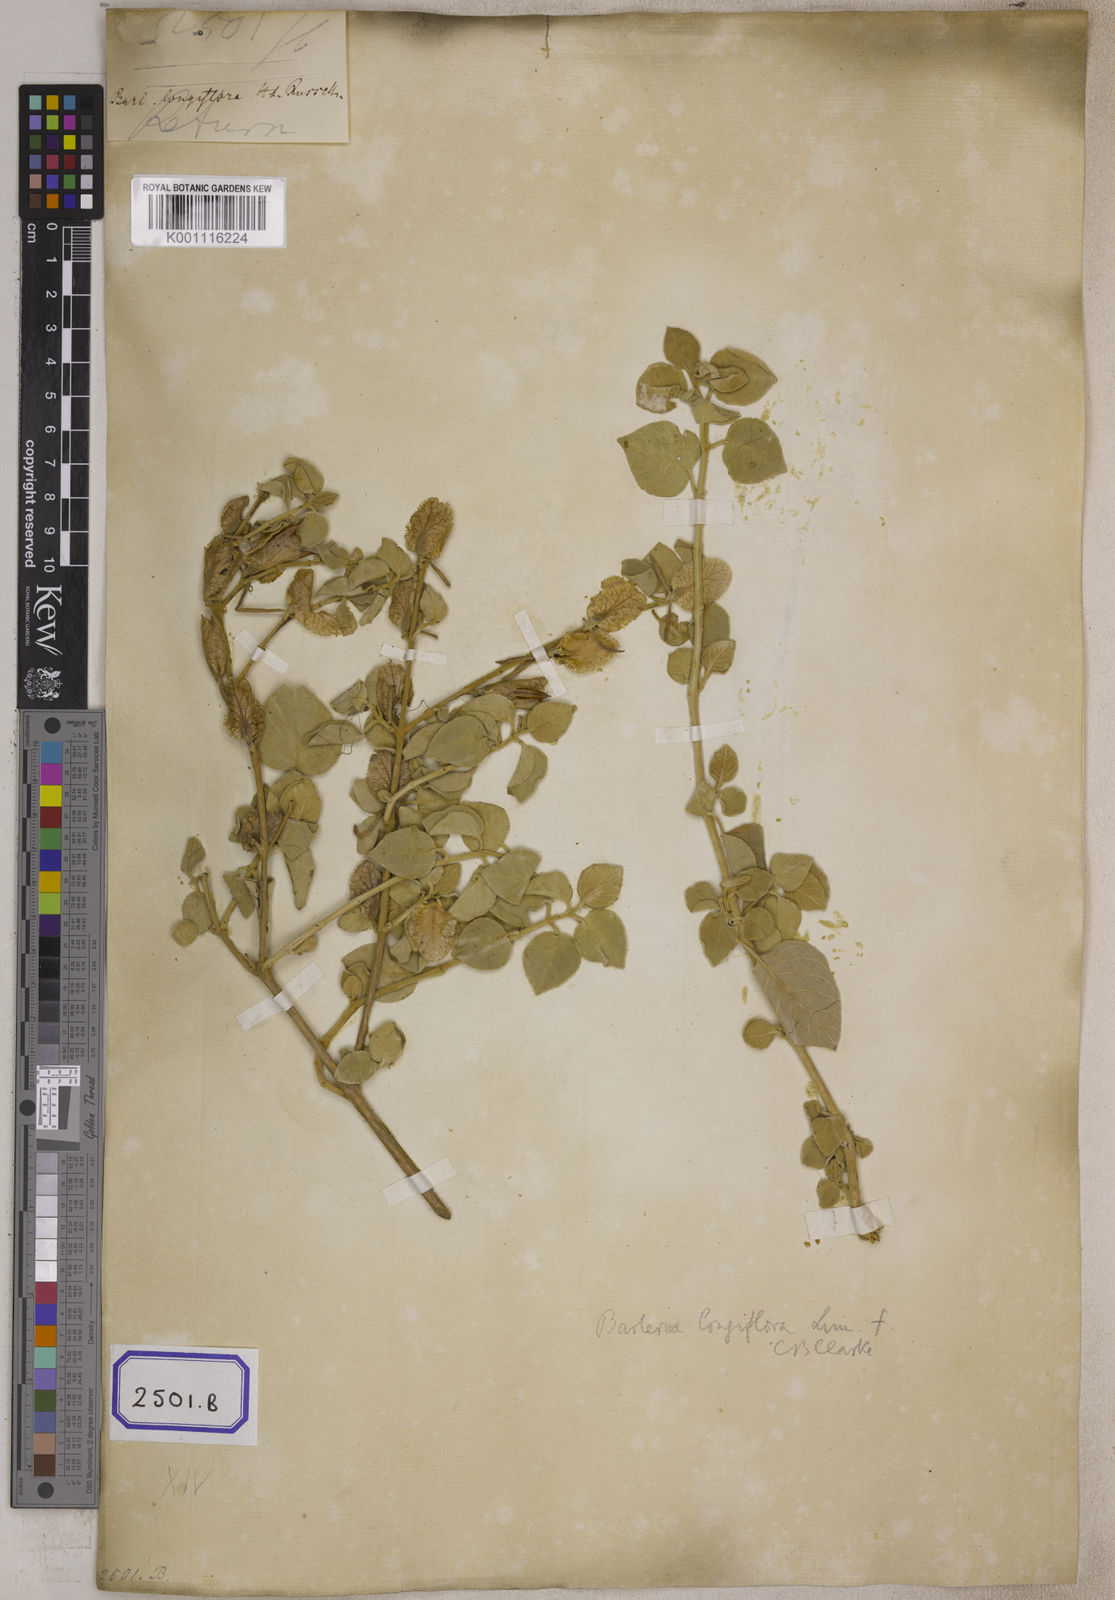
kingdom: Plantae
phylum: Tracheophyta
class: Magnoliopsida
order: Lamiales
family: Acanthaceae
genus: Barleria
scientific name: Barleria longiflora
